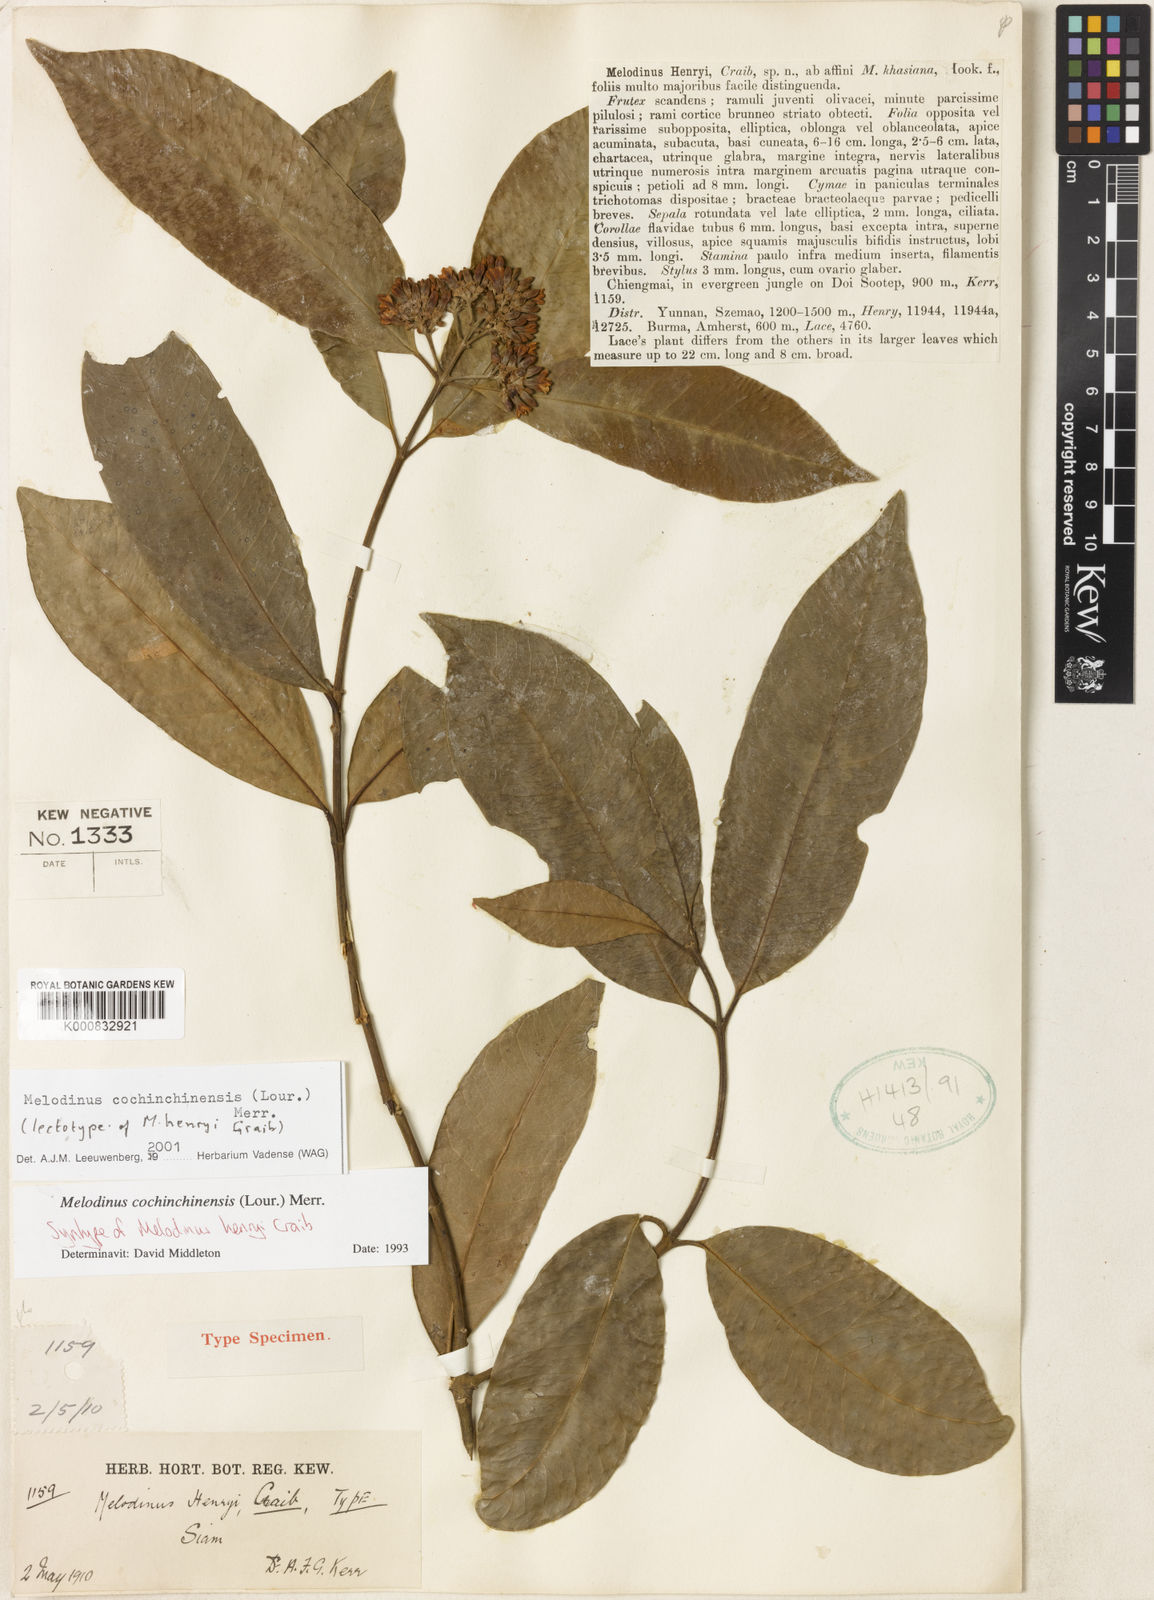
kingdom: Plantae
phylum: Tracheophyta
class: Magnoliopsida
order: Gentianales
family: Apocynaceae
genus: Melodinus
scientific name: Melodinus cochinchinensis
